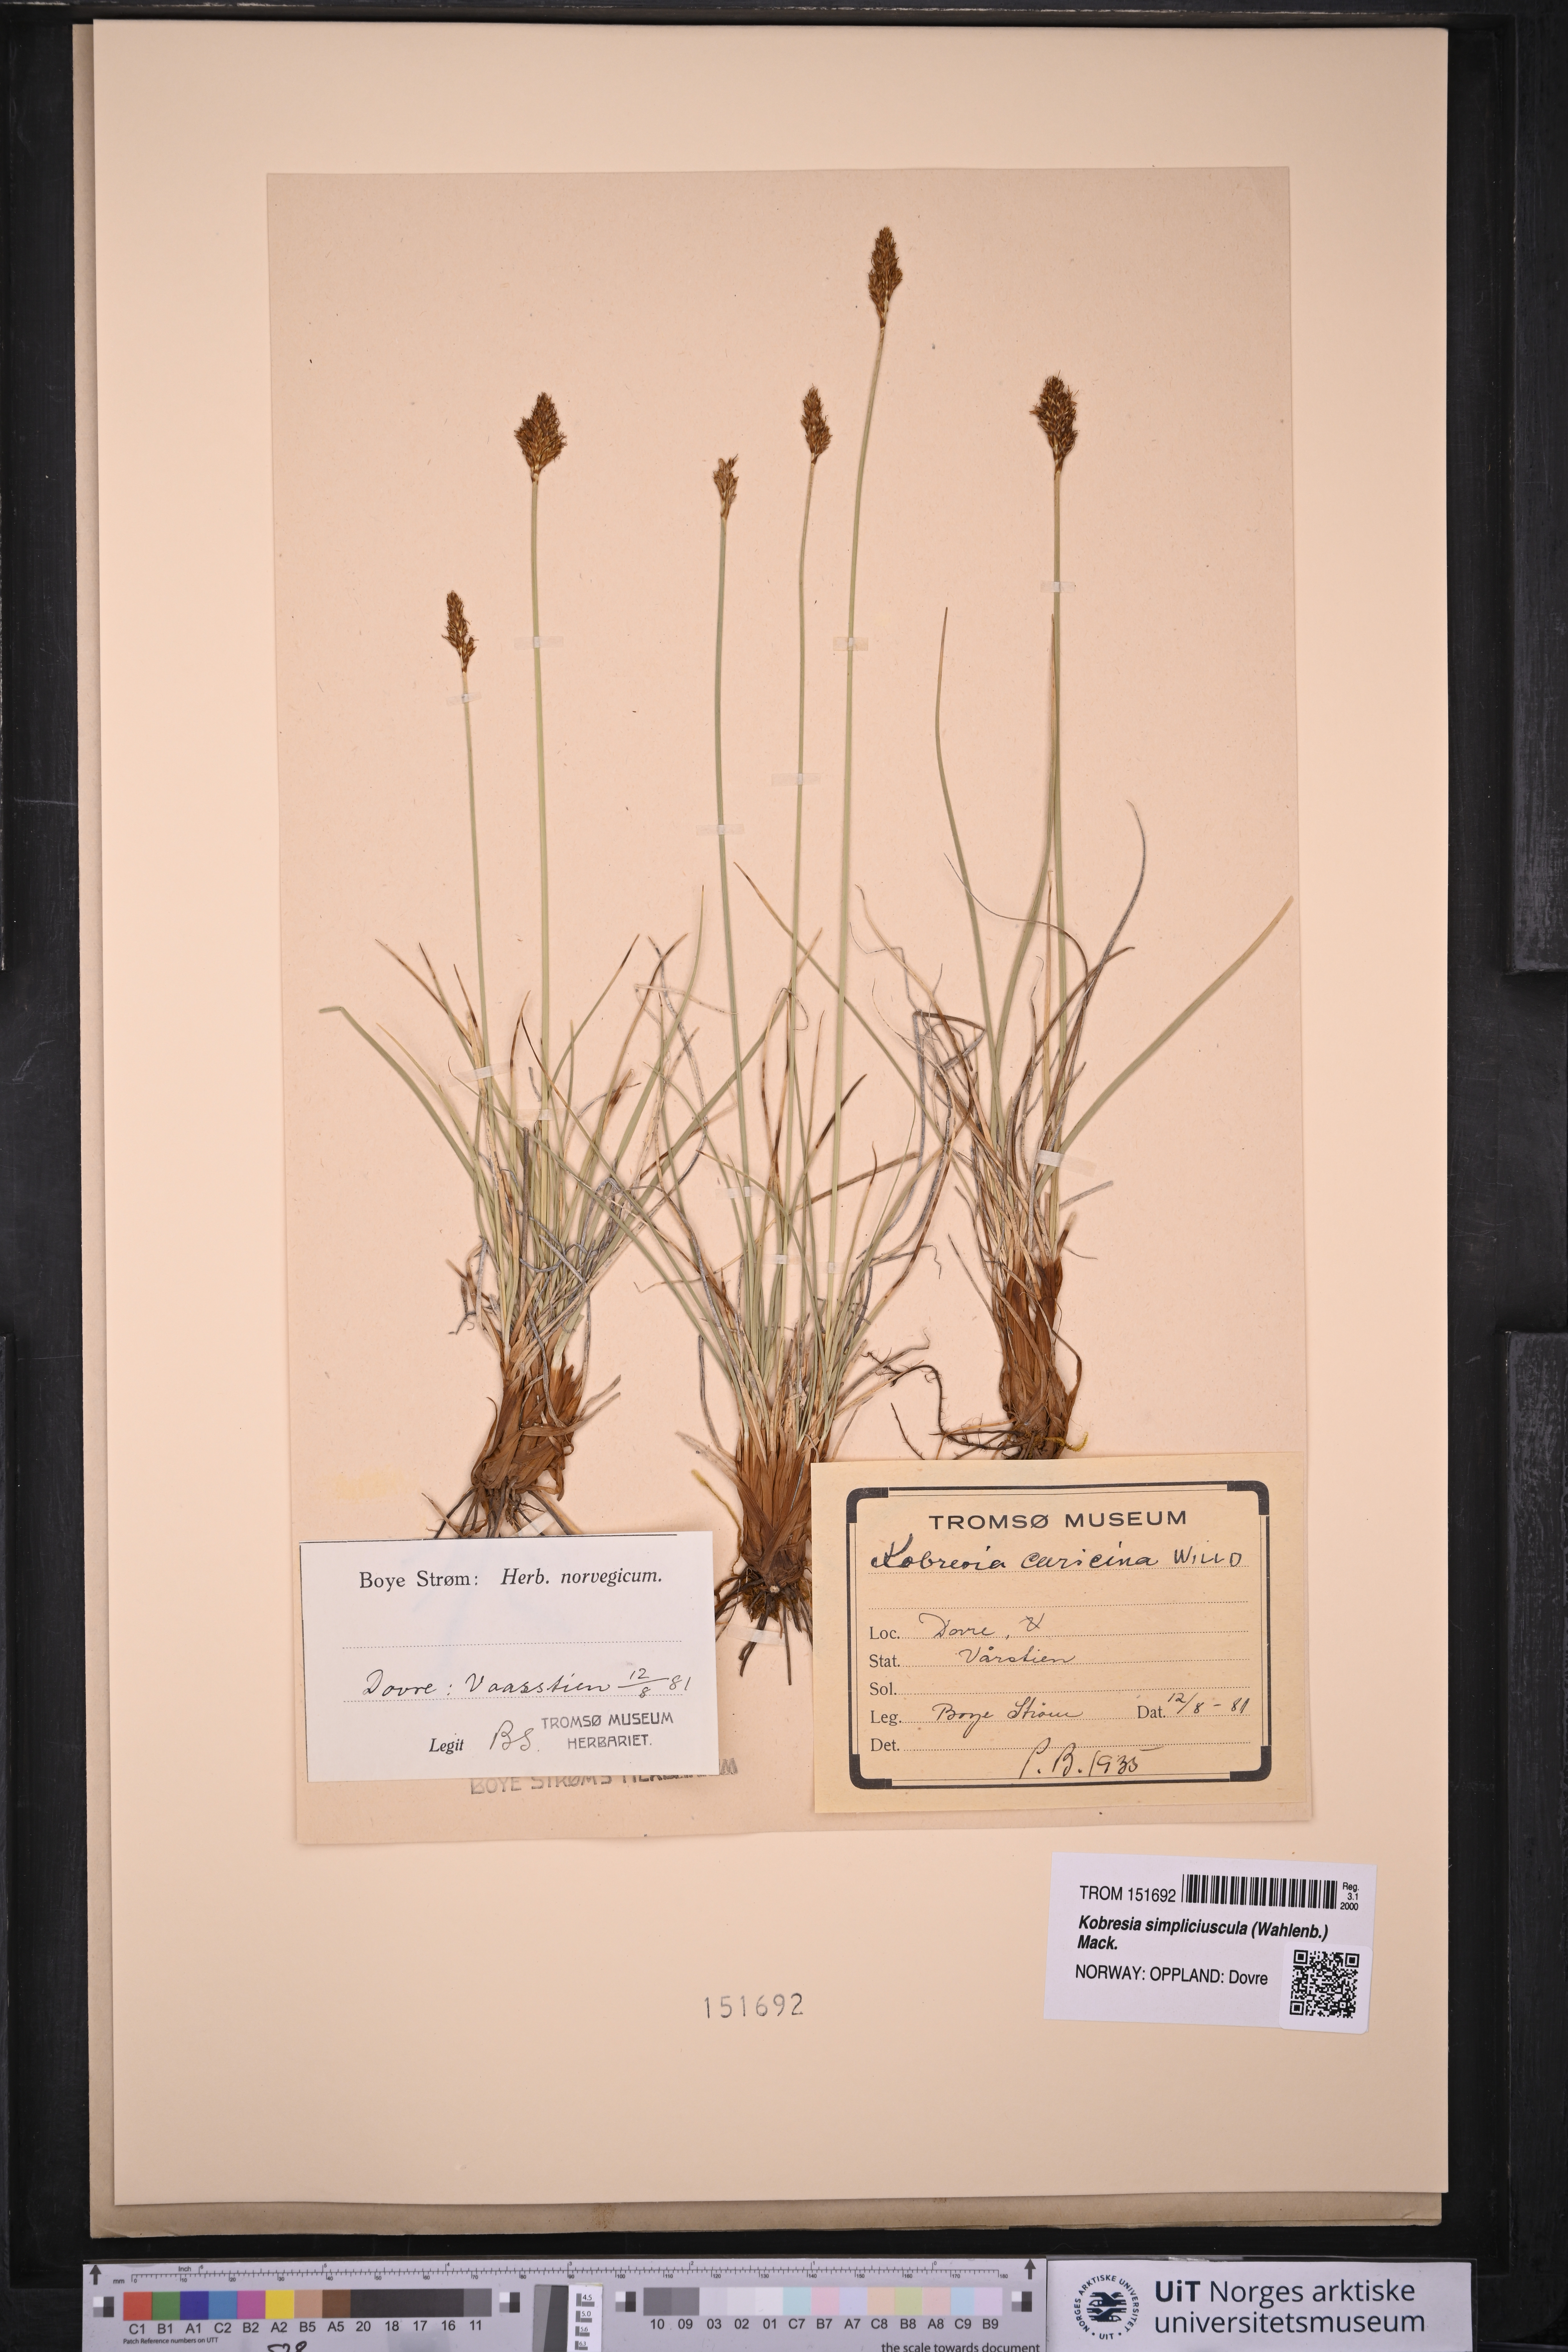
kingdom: Plantae
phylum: Tracheophyta
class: Liliopsida
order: Poales
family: Cyperaceae
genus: Carex
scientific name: Carex simpliciuscula
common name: Simple bog sedge
